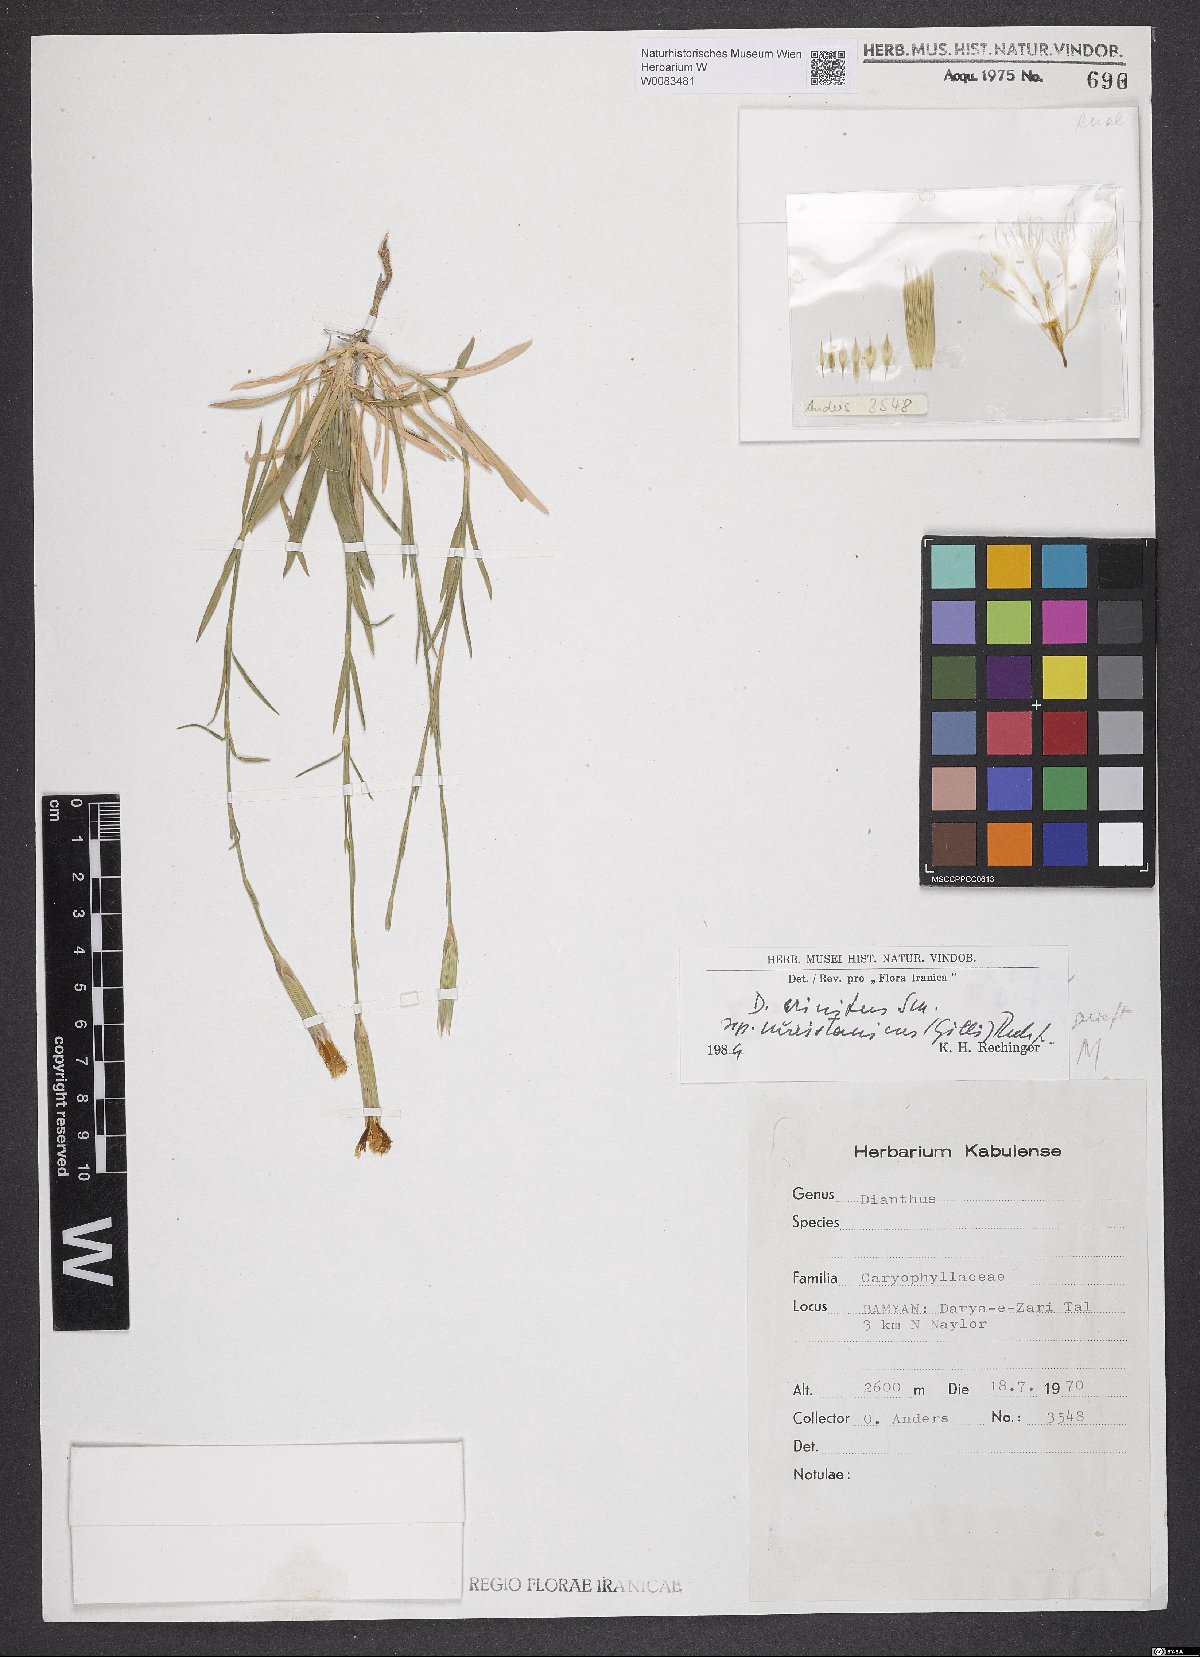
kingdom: Plantae
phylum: Tracheophyta
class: Magnoliopsida
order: Caryophyllales
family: Caryophyllaceae
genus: Dianthus
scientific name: Dianthus crinitus
